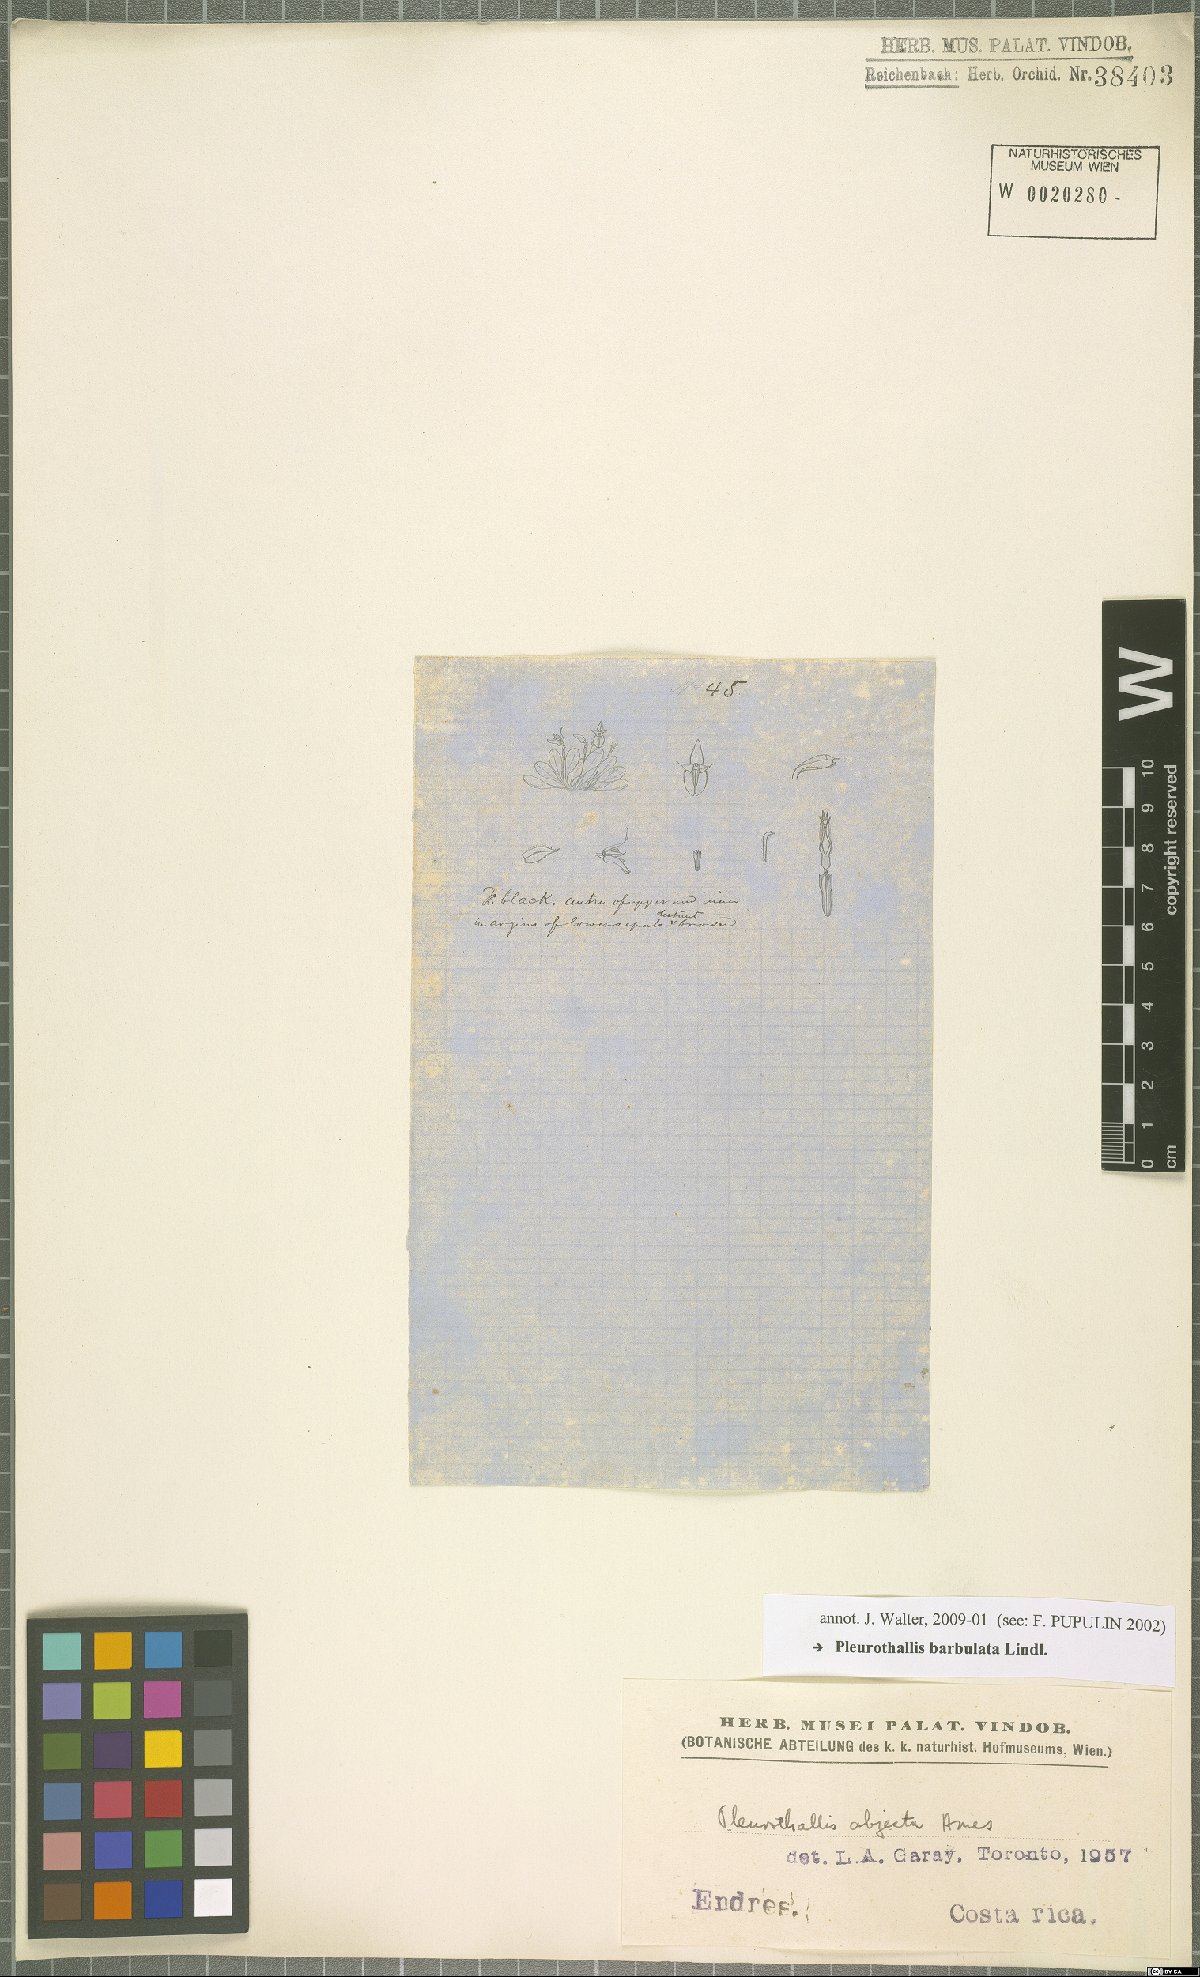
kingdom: Plantae
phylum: Tracheophyta
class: Liliopsida
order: Asparagales
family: Orchidaceae
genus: Anathallis
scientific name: Anathallis barbulata
